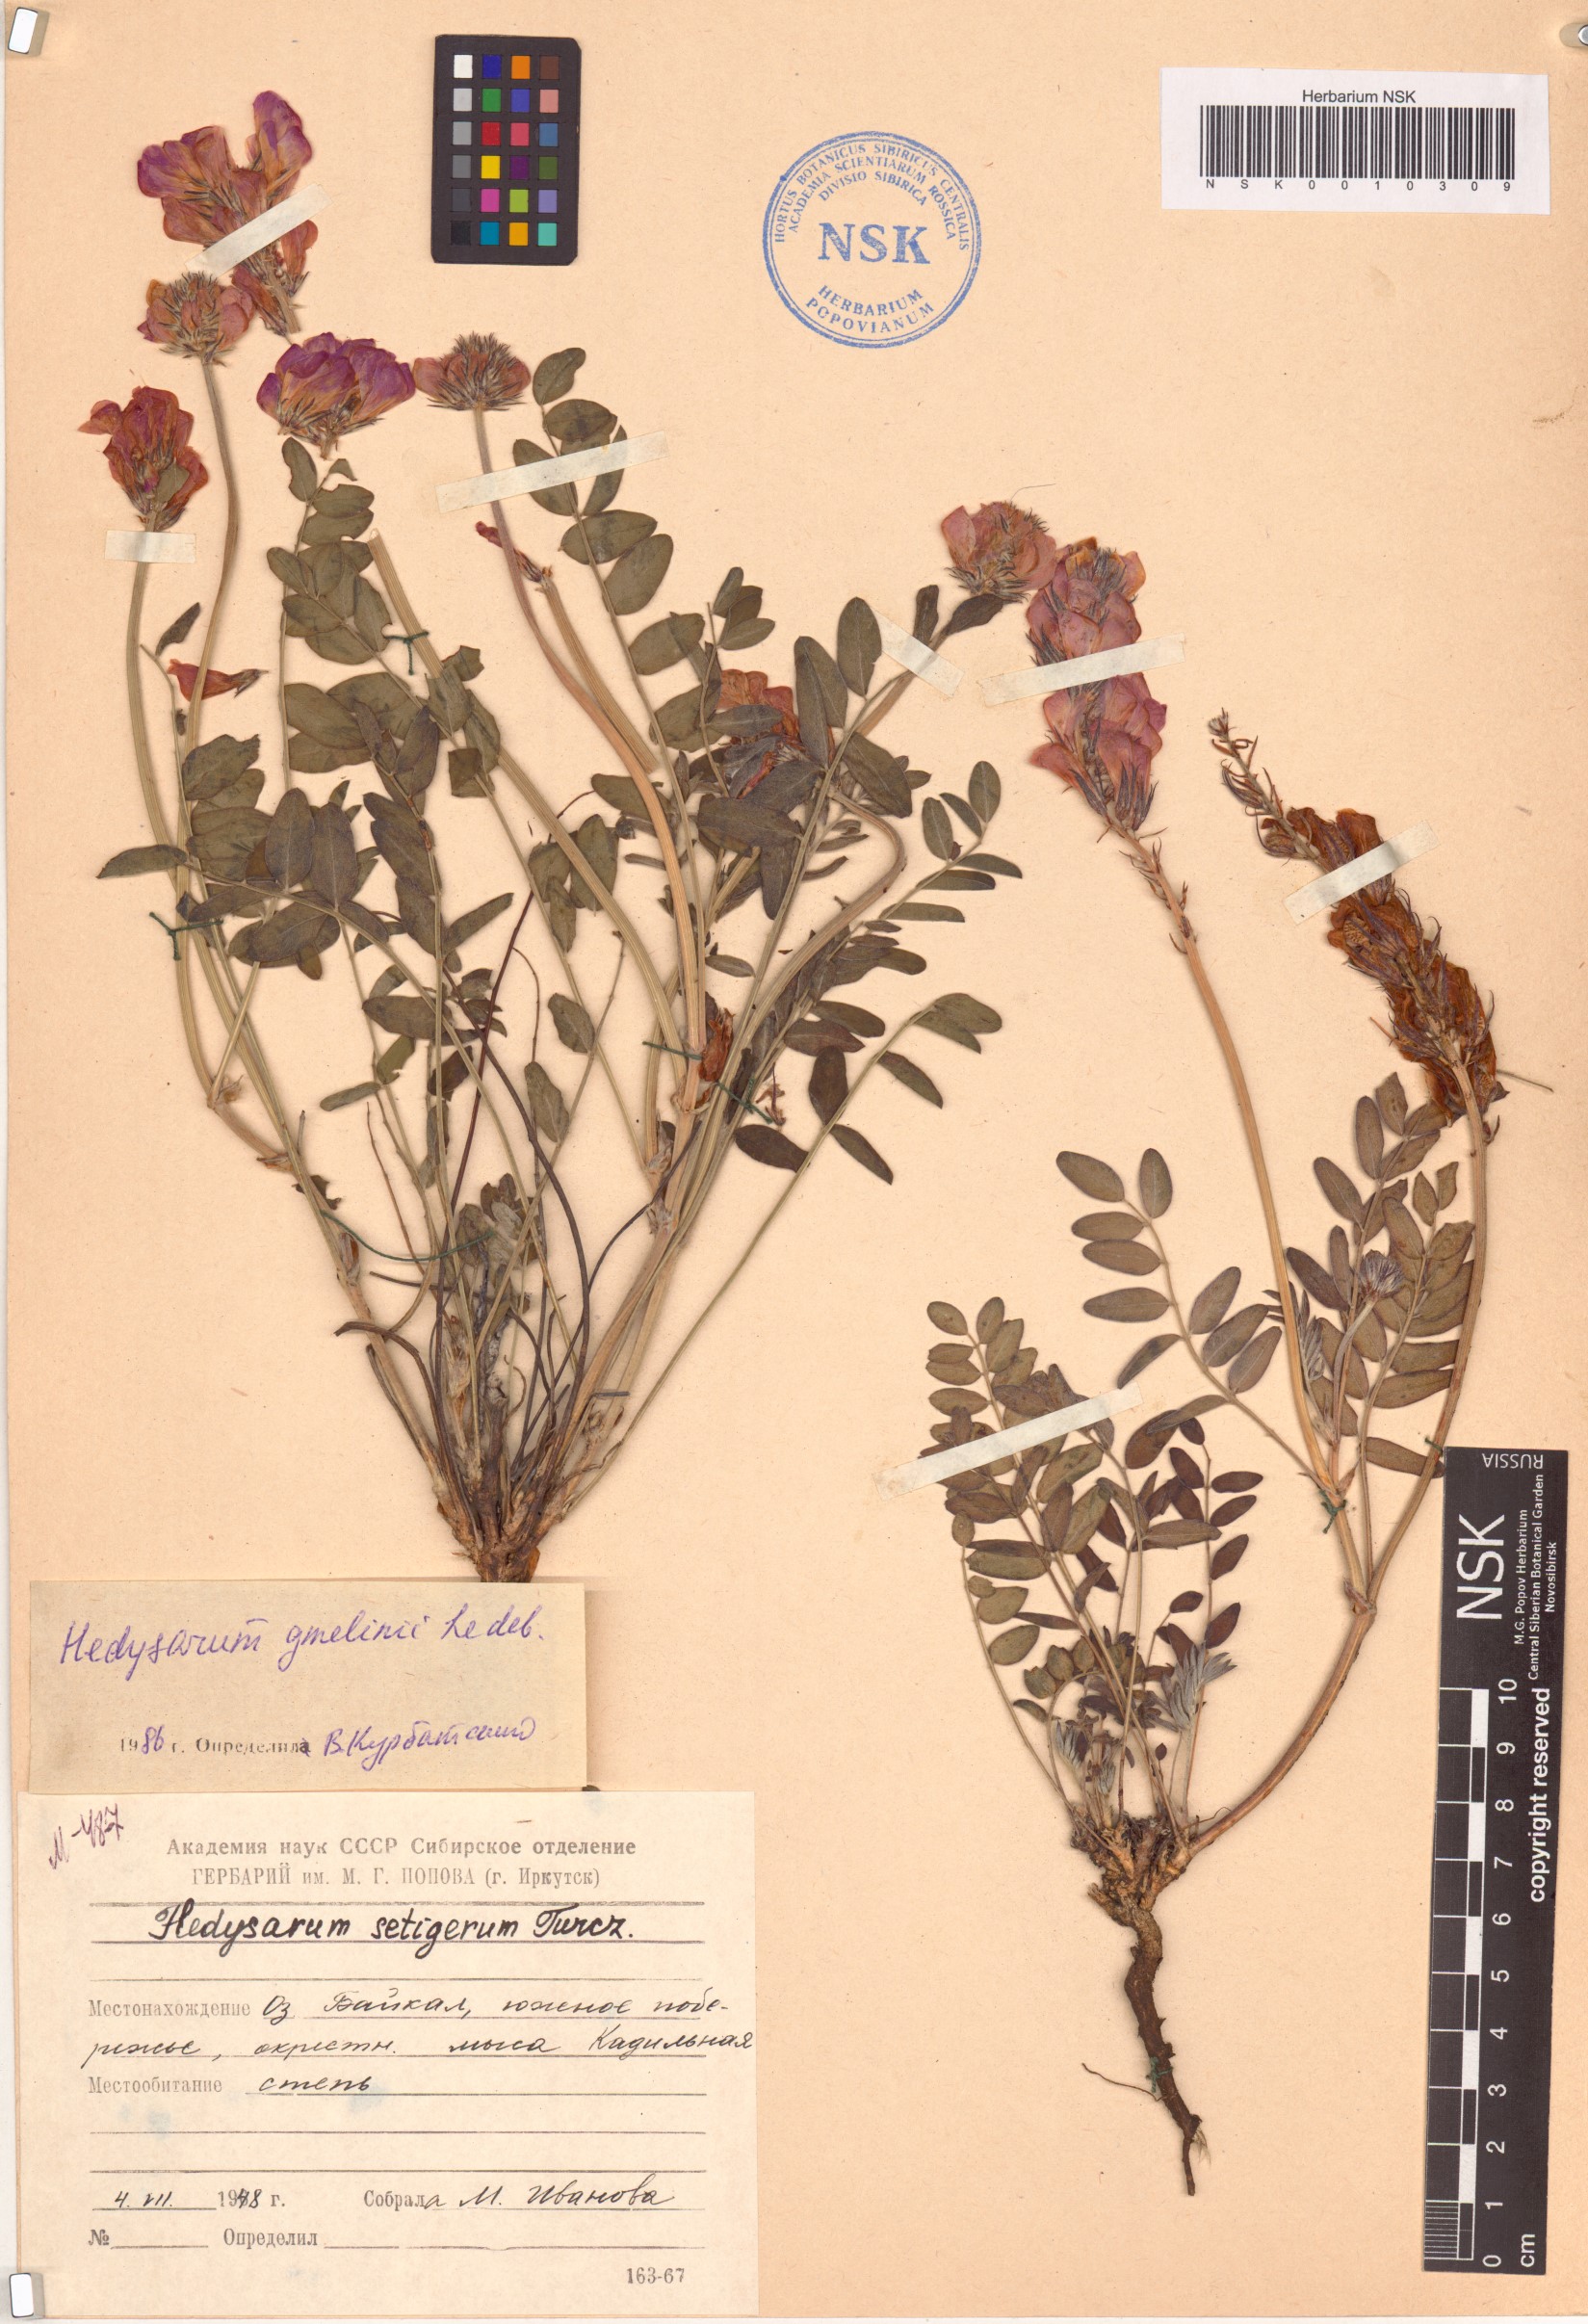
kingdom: Plantae
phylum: Tracheophyta
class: Magnoliopsida
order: Fabales
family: Fabaceae
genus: Hedysarum
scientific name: Hedysarum gmelinii
